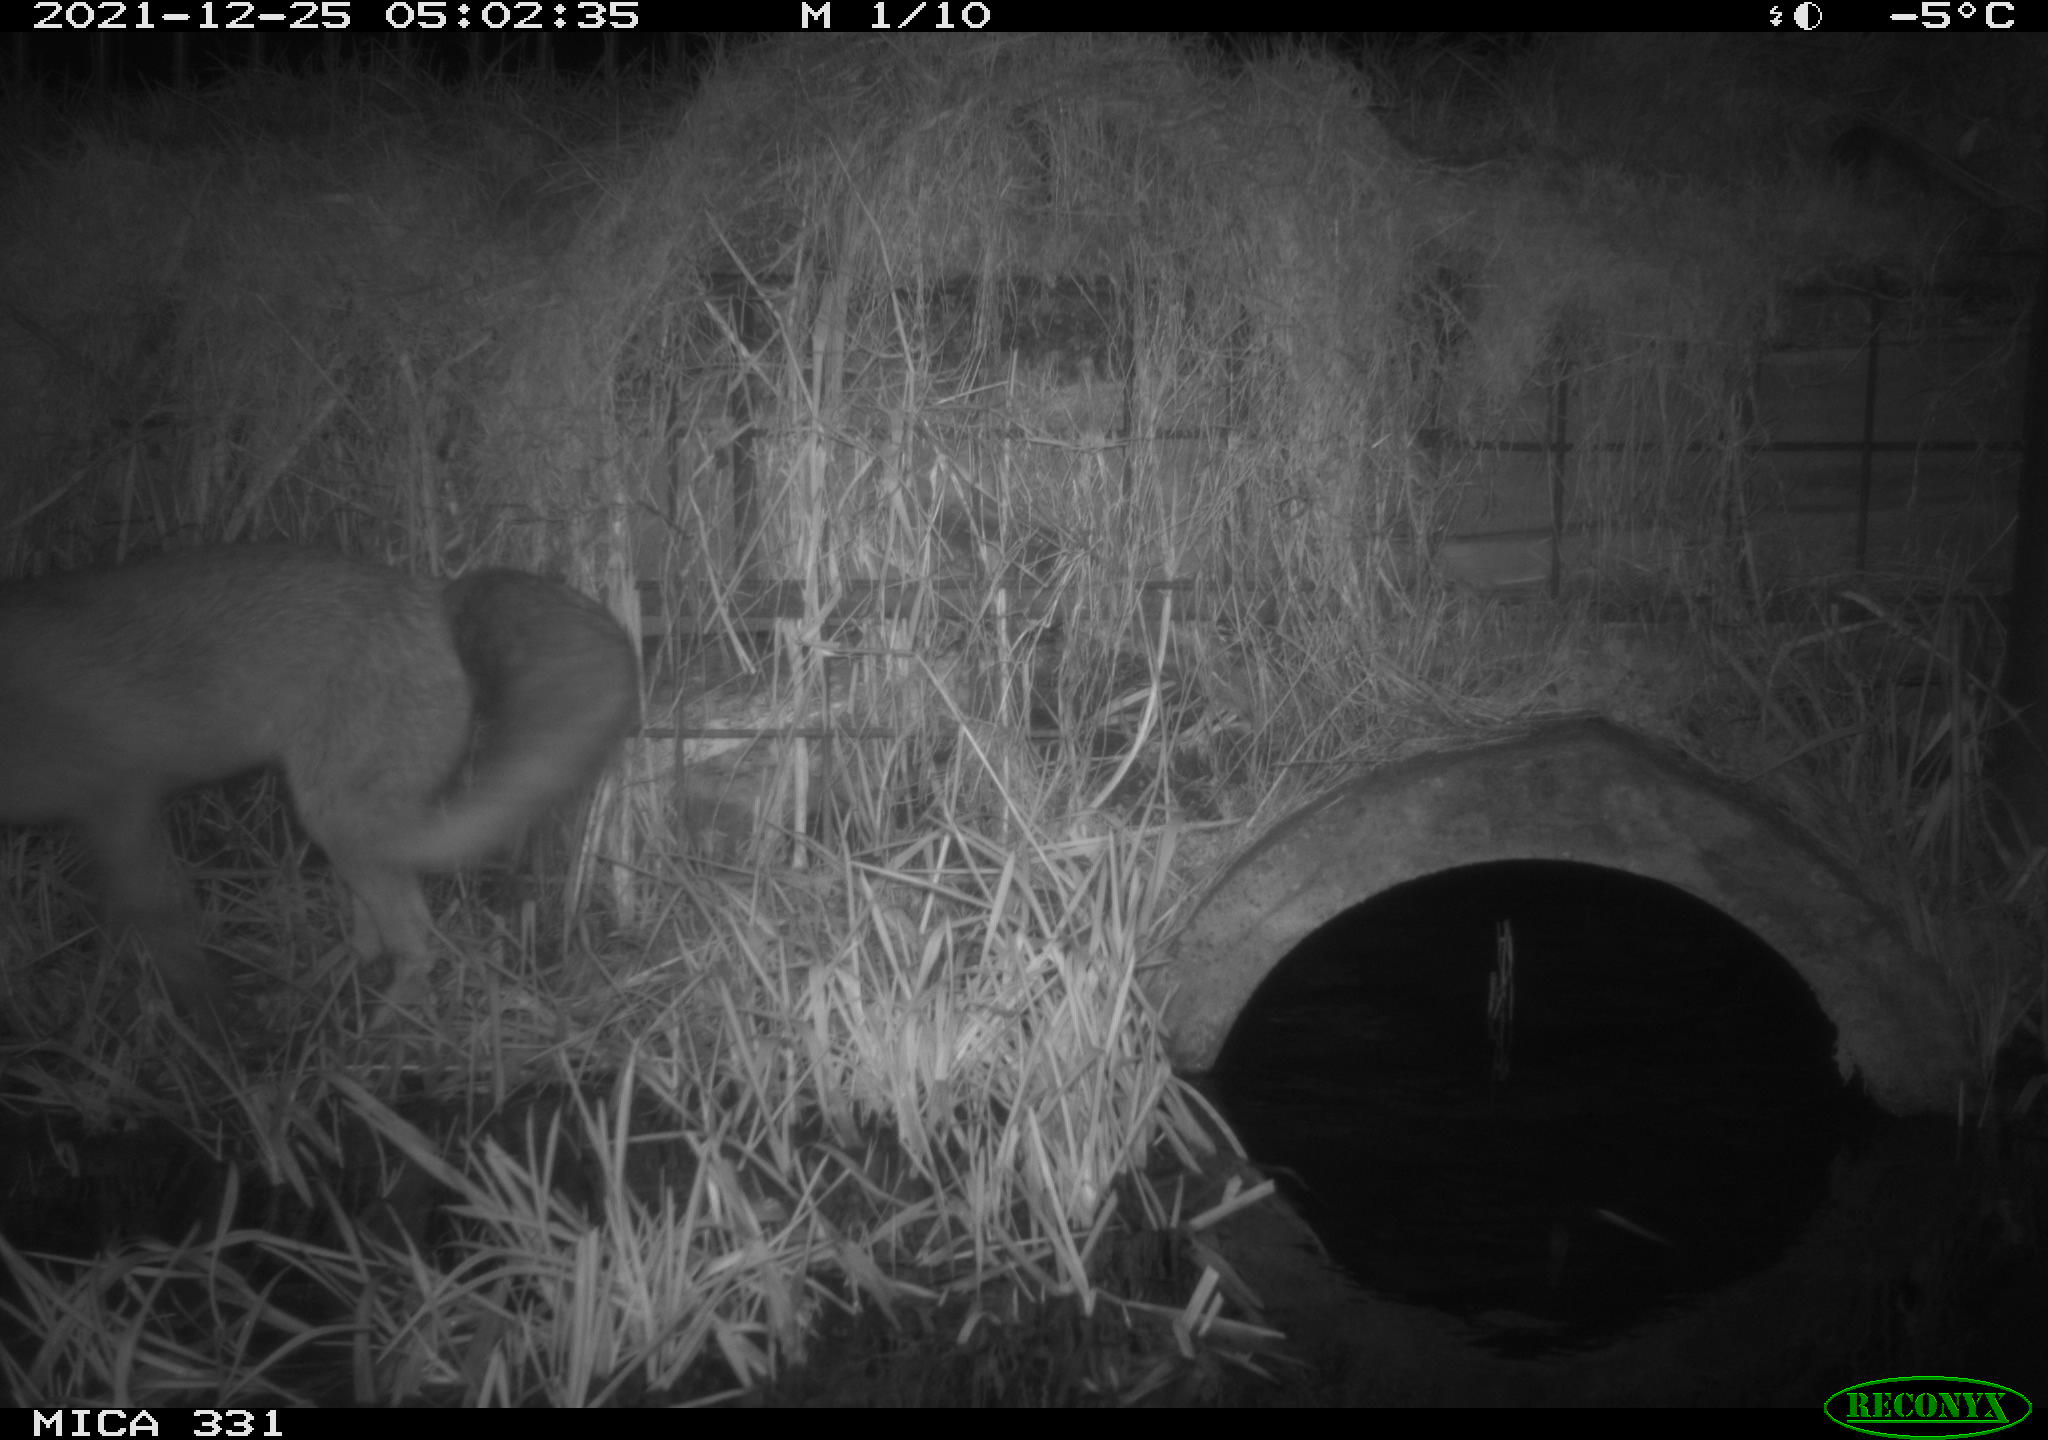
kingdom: Animalia
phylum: Chordata
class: Mammalia
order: Carnivora
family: Canidae
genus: Vulpes
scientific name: Vulpes vulpes
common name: Red fox
